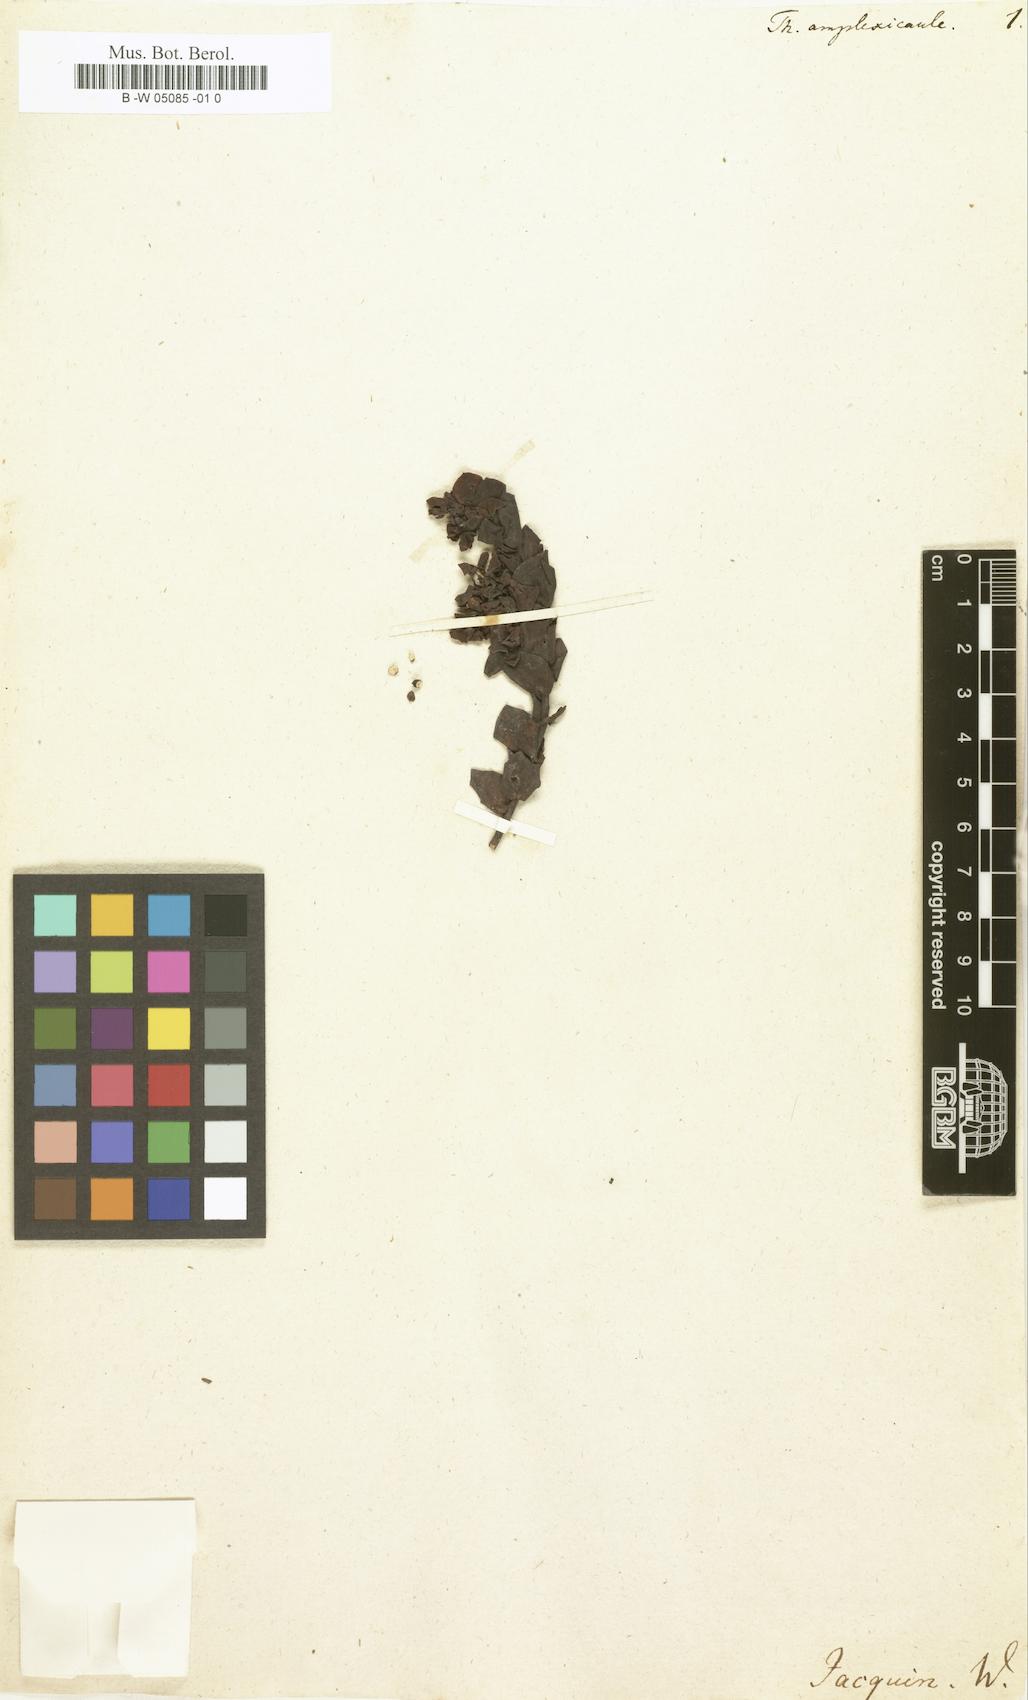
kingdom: Plantae
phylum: Tracheophyta
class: Magnoliopsida
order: Santalales
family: Thesiaceae
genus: Thesium
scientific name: Thesium euphorbioides
